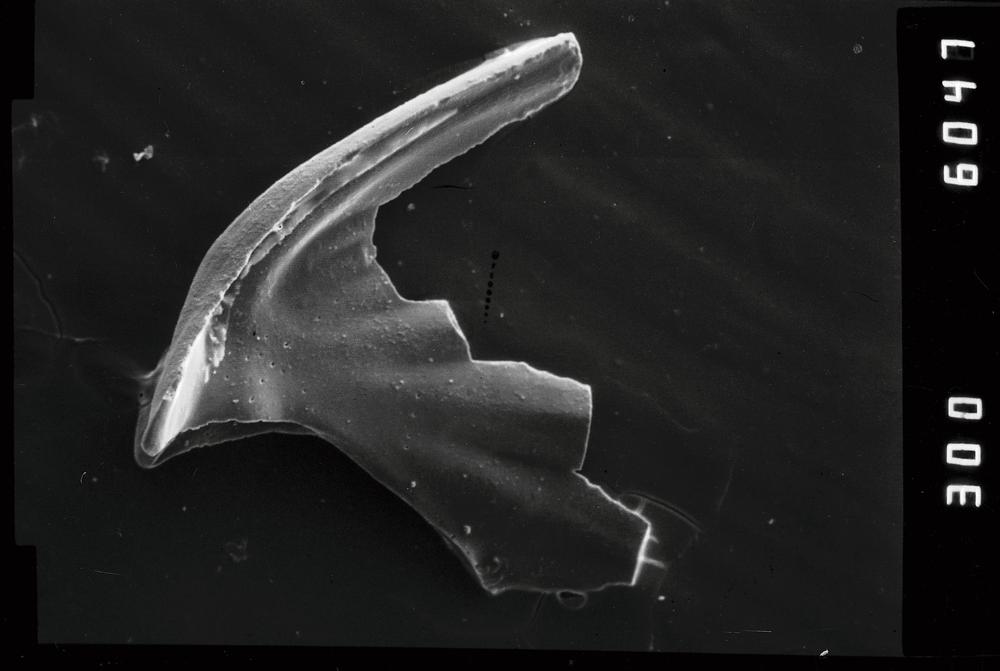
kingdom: Animalia
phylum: Chordata
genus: Periodon
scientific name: Periodon aculeatus
